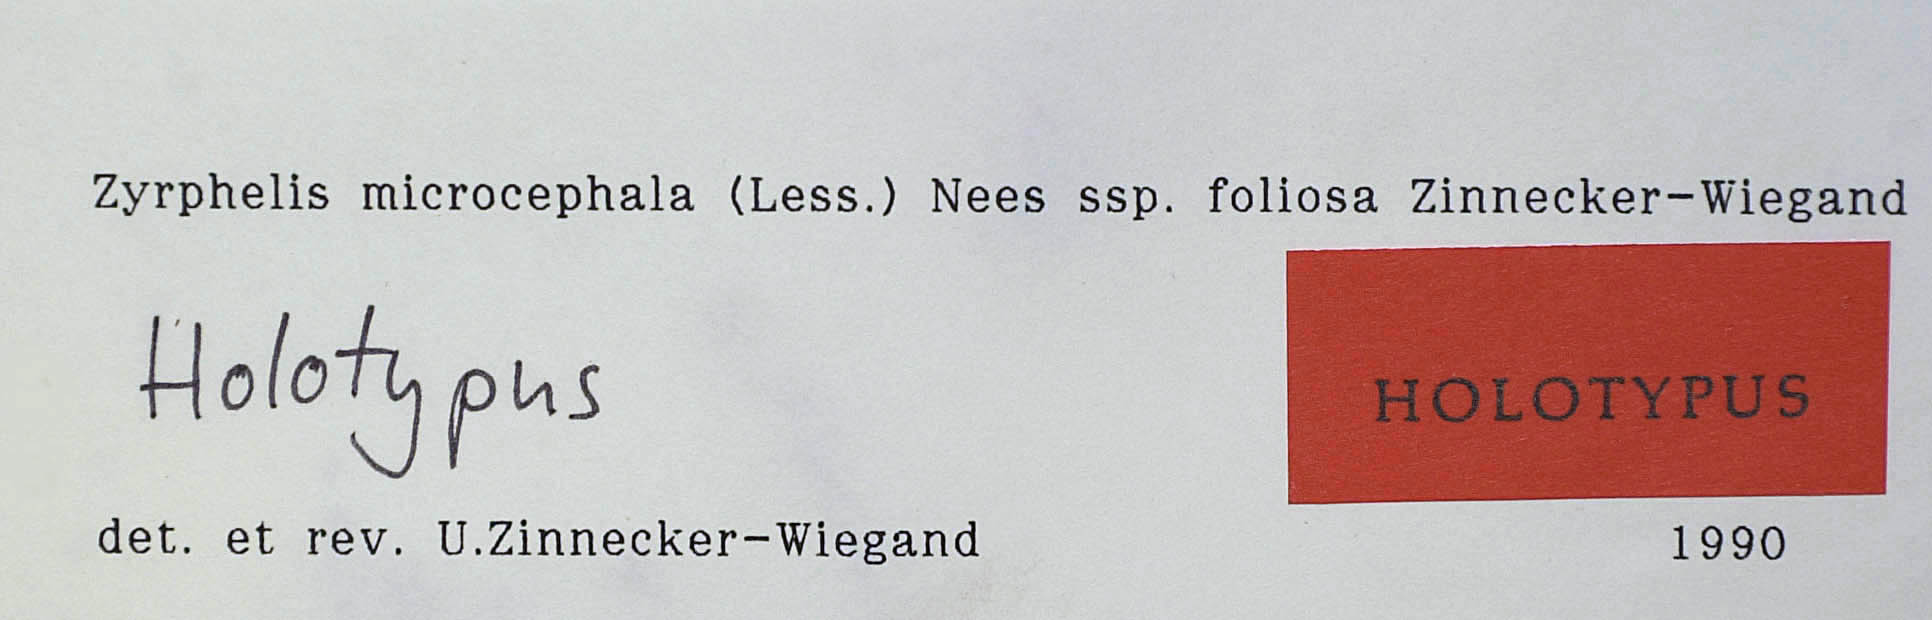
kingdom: Plantae
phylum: Tracheophyta
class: Magnoliopsida
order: Asterales
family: Asteraceae
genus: Zyrphelis
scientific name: Zyrphelis microcephala
